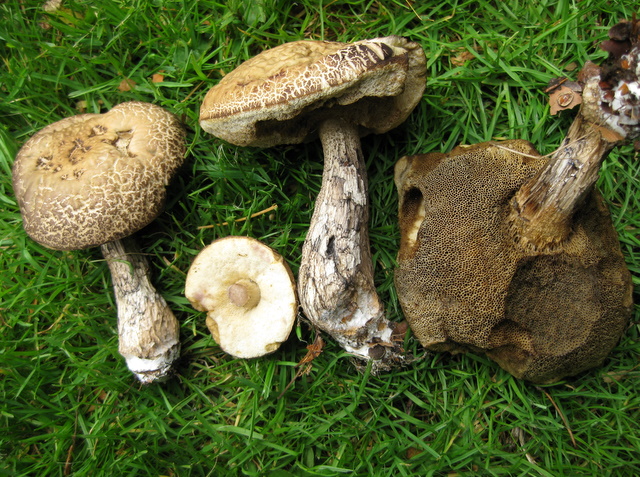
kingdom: Fungi
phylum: Basidiomycota
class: Agaricomycetes
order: Boletales
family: Boletaceae
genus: Leccinellum
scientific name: Leccinellum pseudoscabrum
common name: avnbøg-skælrørhat
